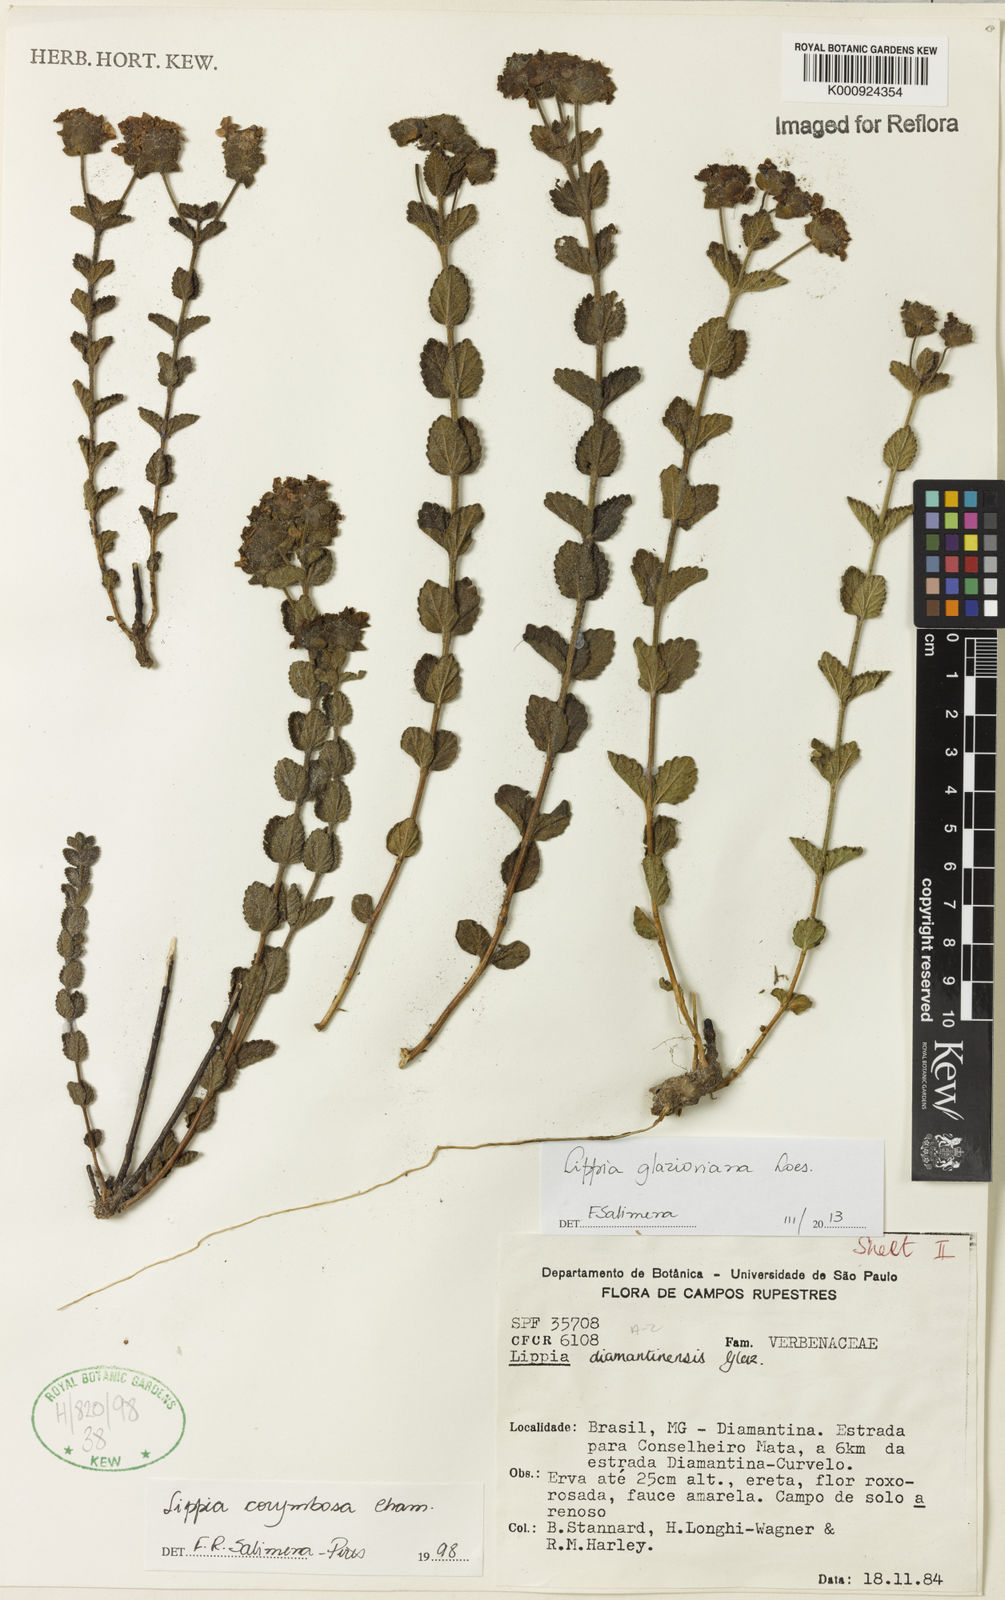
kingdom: Plantae
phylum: Tracheophyta
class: Magnoliopsida
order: Lamiales
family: Verbenaceae
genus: Lippia
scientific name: Lippia glazioviana
